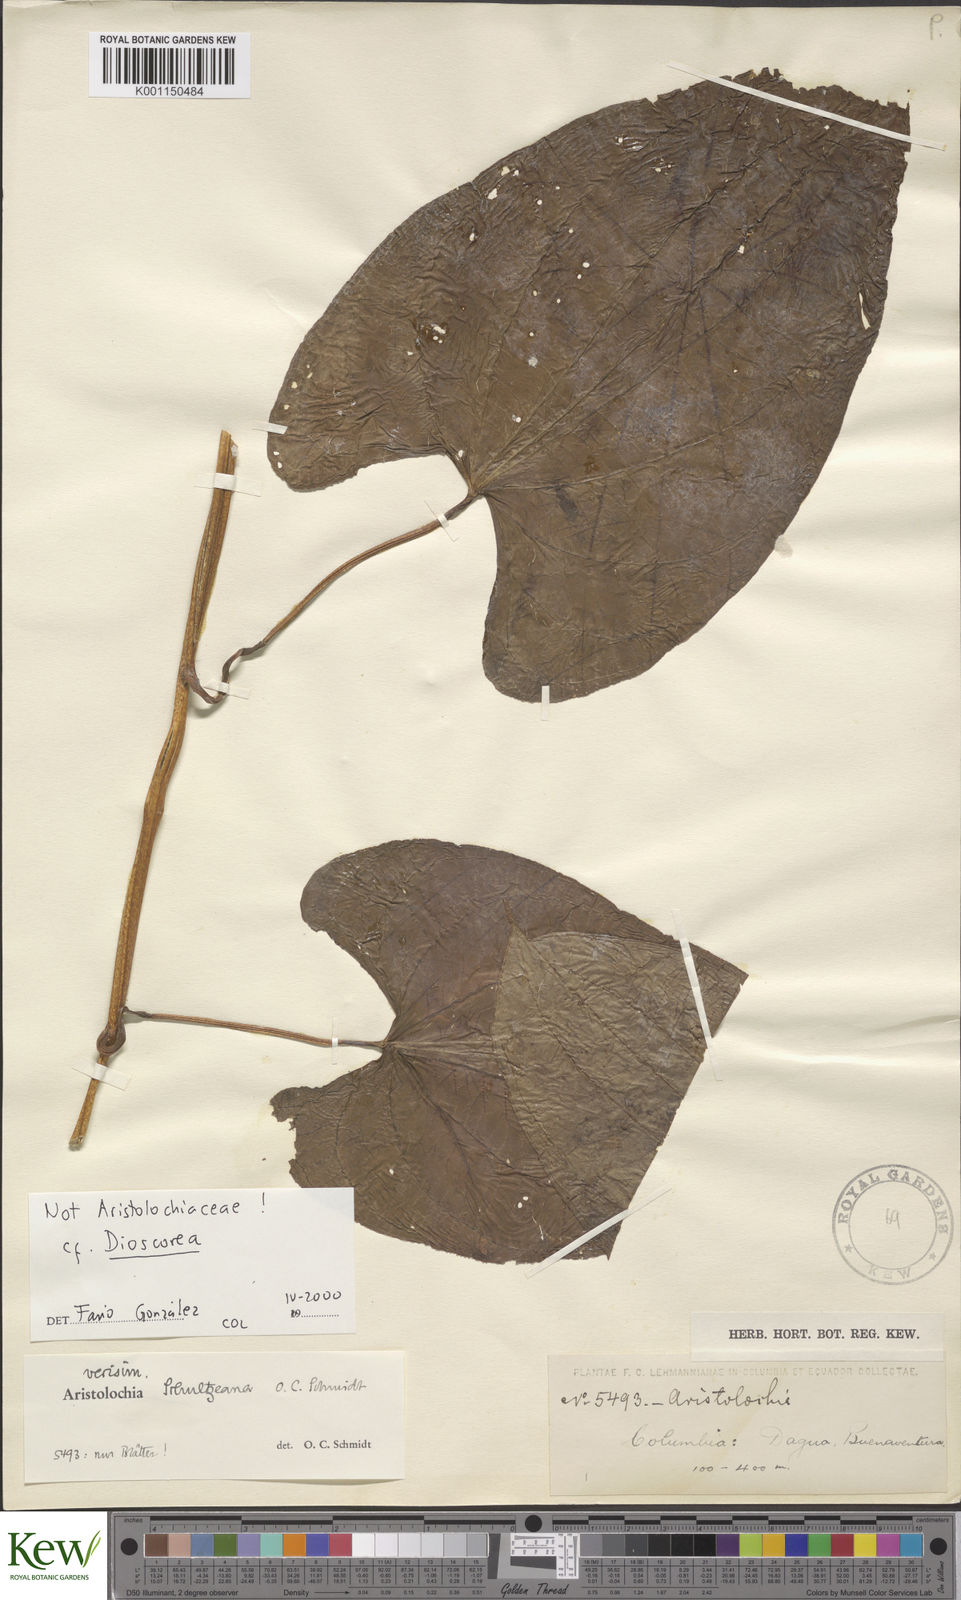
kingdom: Plantae
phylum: Tracheophyta
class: Liliopsida
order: Dioscoreales
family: Dioscoreaceae
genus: Dioscorea
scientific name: Dioscorea polygonoides
